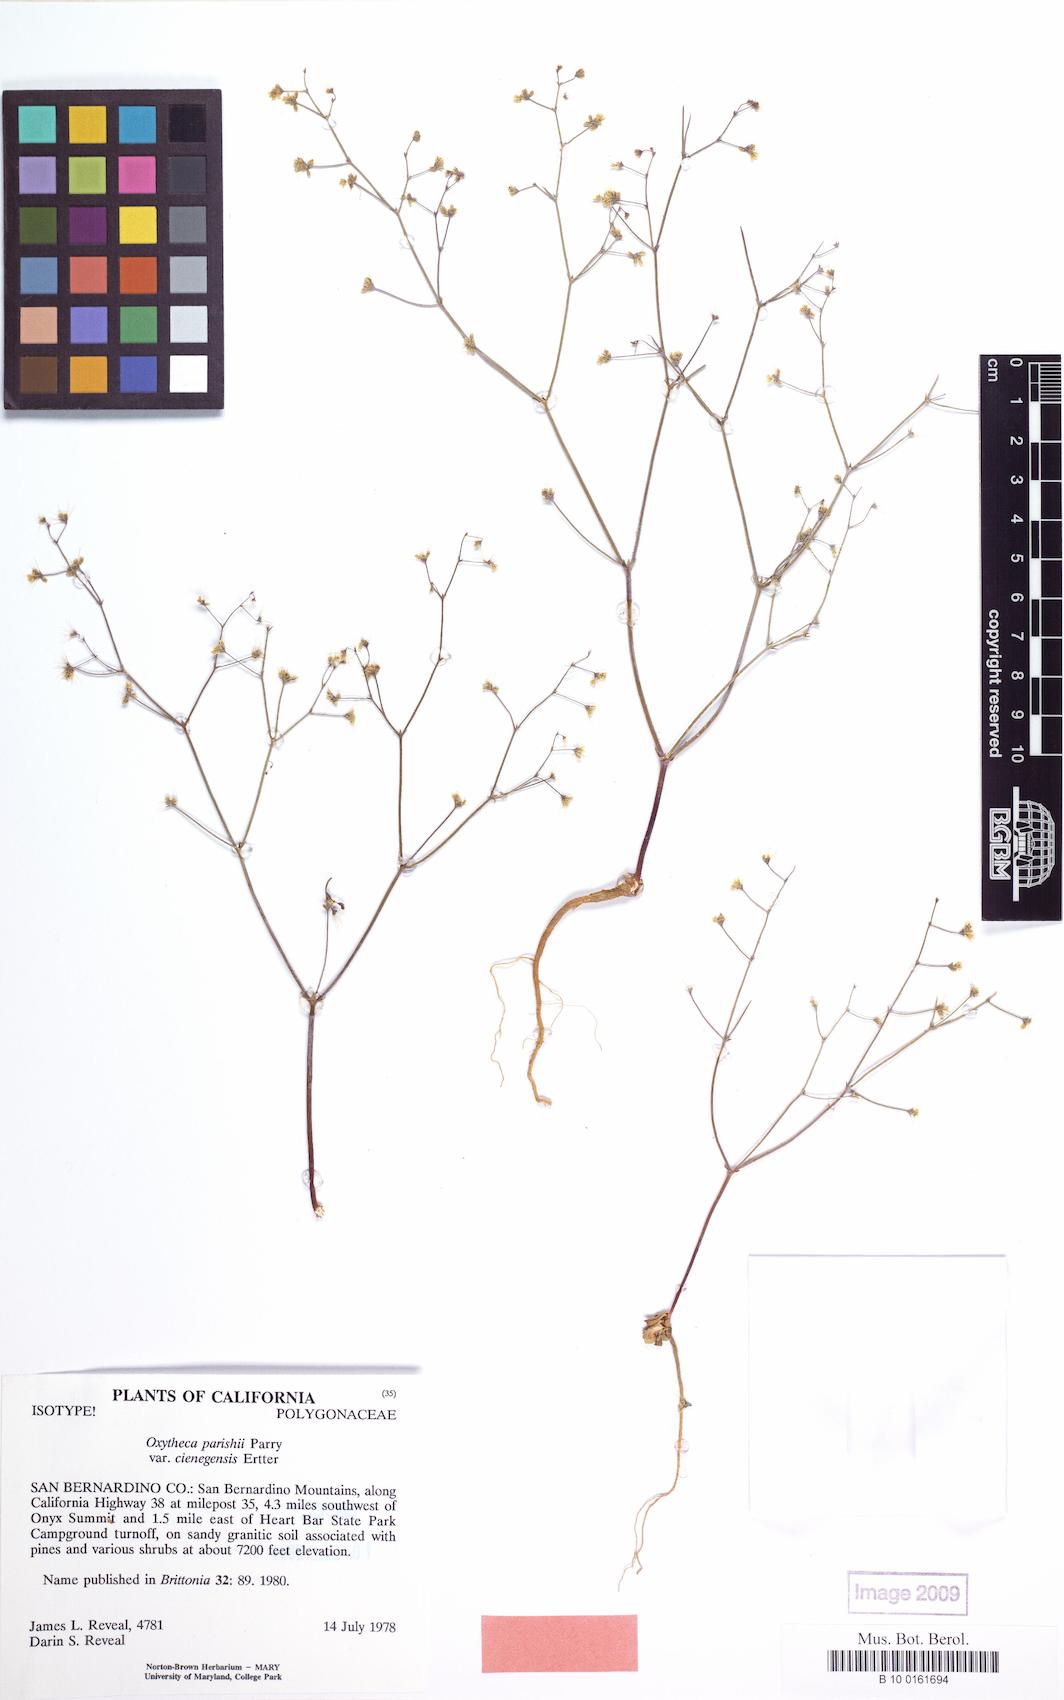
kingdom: Plantae
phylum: Tracheophyta
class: Magnoliopsida
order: Caryophyllales
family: Polygonaceae
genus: Acanthoscyphus
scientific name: Acanthoscyphus parishii
